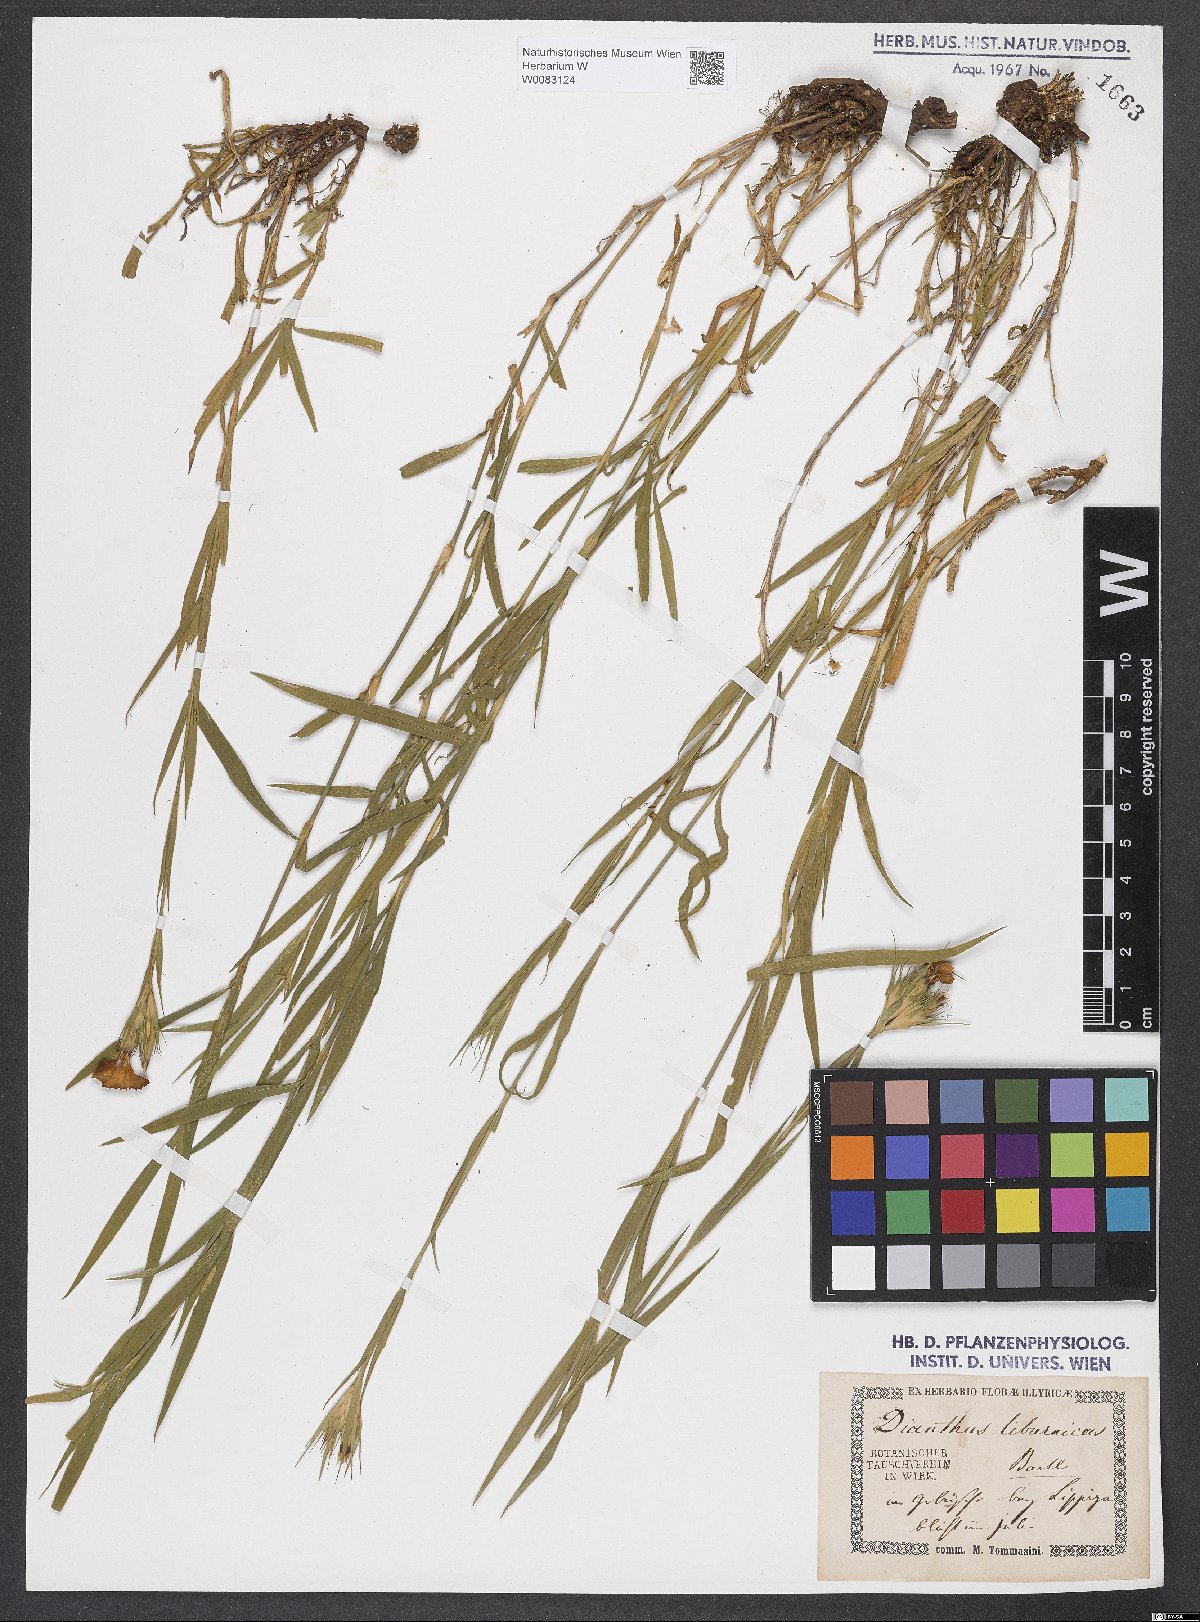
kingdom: Plantae
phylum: Tracheophyta
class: Magnoliopsida
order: Caryophyllales
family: Caryophyllaceae
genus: Dianthus
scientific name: Dianthus balbisii
